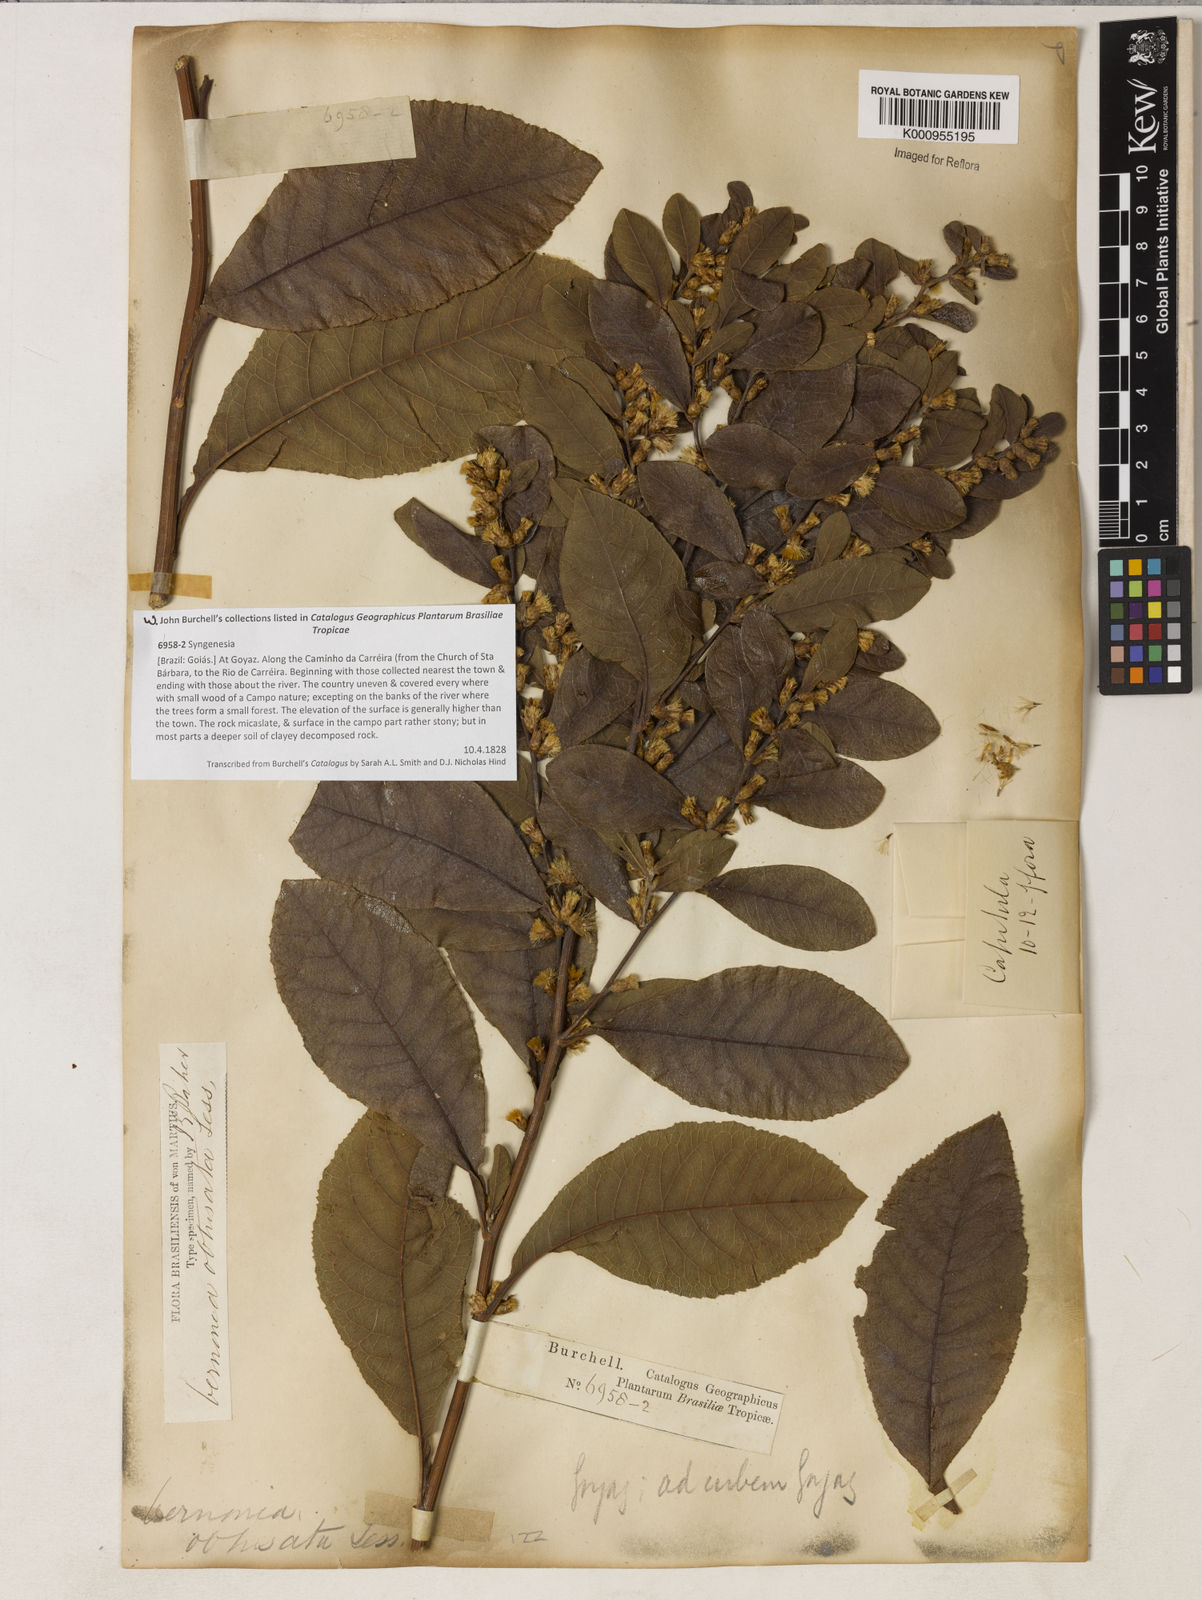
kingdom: Plantae
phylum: Tracheophyta
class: Magnoliopsida
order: Asterales
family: Asteraceae
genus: Lessingianthus
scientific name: Lessingianthus obtusatus
